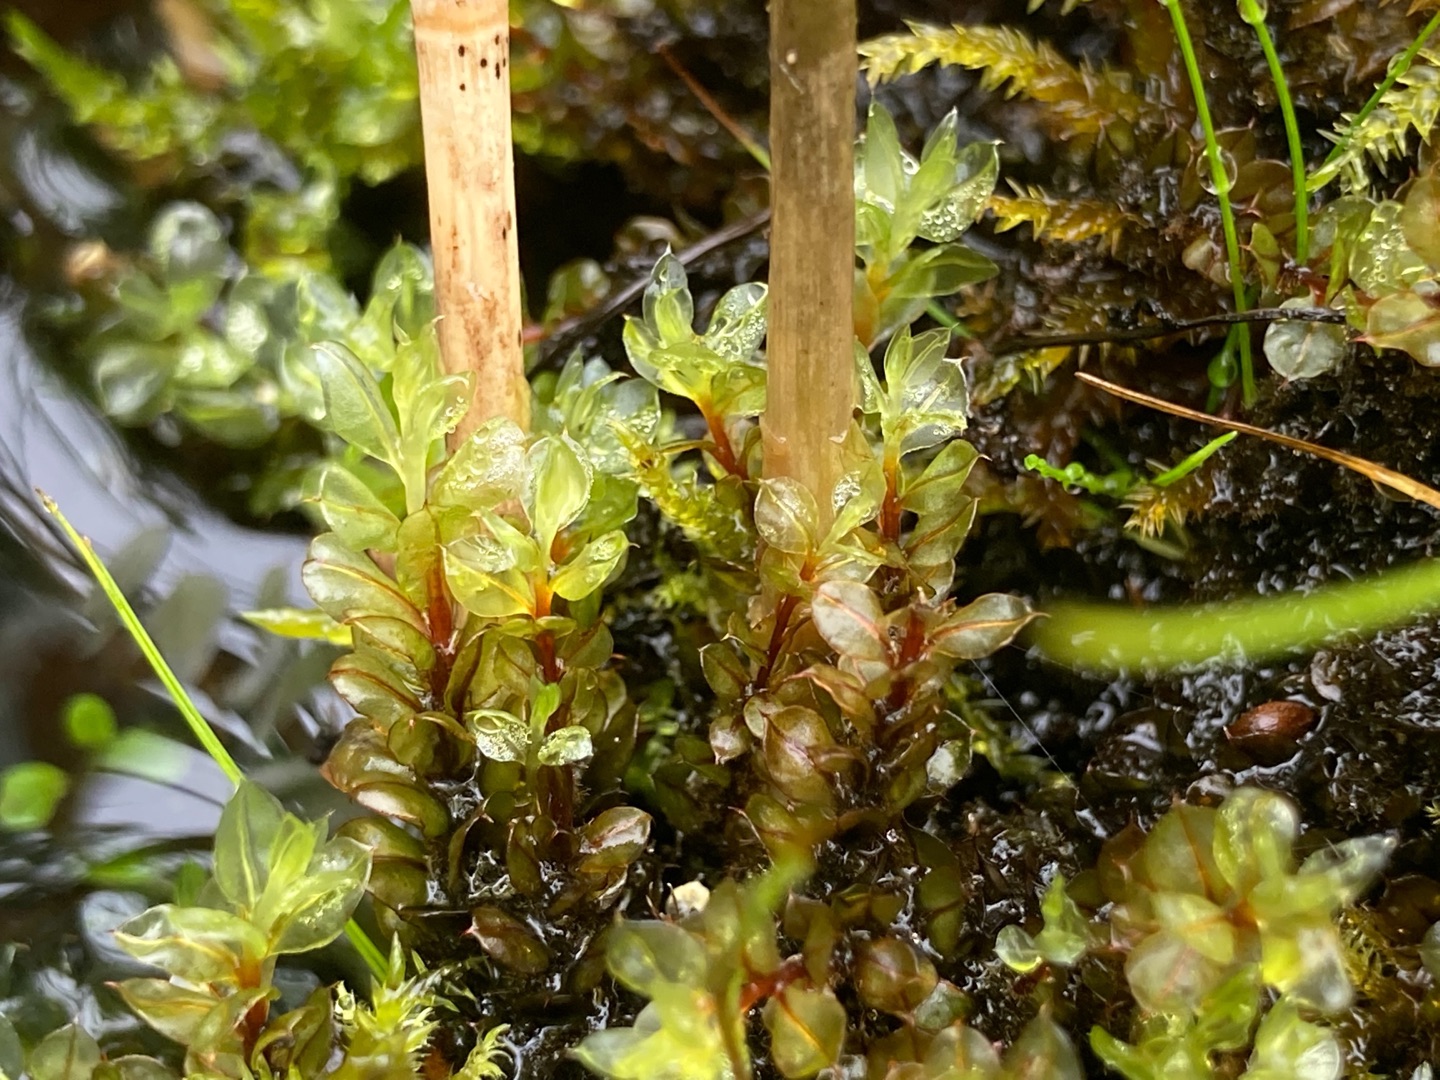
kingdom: Plantae
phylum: Bryophyta
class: Bryopsida
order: Bryales
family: Mniaceae
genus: Cinclidium
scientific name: Cinclidium stygium
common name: Kær-gittermos
